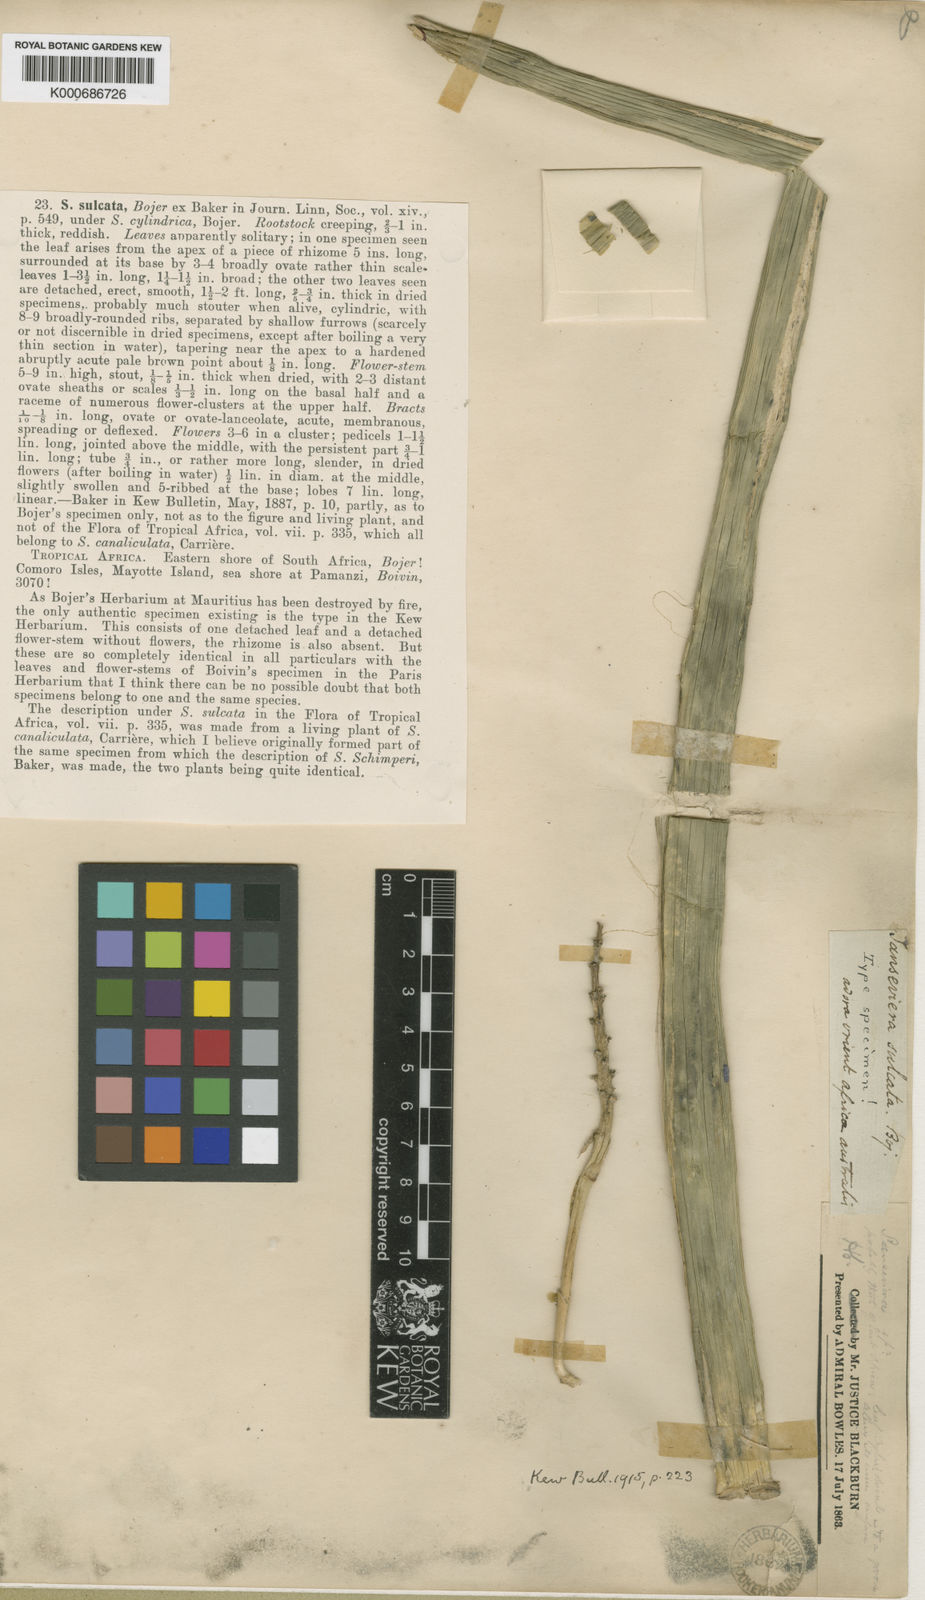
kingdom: Plantae
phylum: Tracheophyta
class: Liliopsida
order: Asparagales
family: Asparagaceae
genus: Dracaena
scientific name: Dracaena canaliculata
